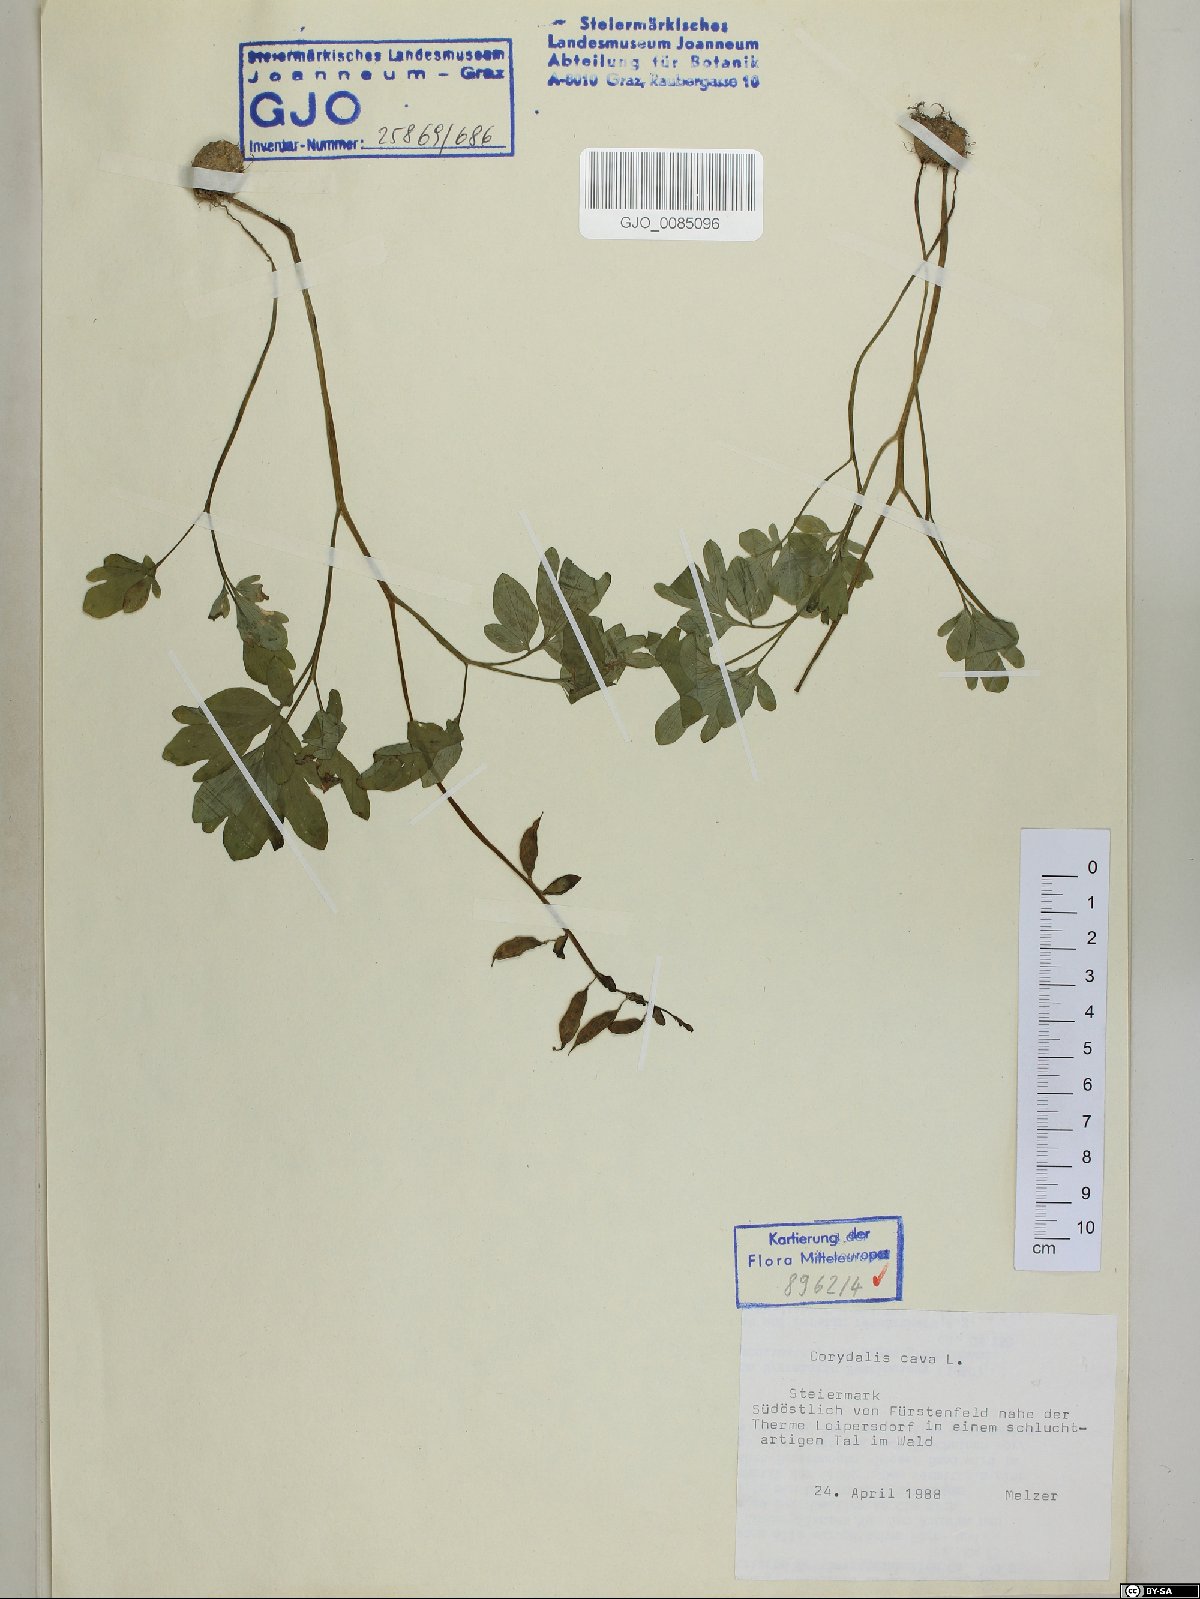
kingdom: Plantae
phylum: Tracheophyta
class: Magnoliopsida
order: Ranunculales
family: Papaveraceae
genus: Corydalis
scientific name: Corydalis cava
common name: Hollowroot
